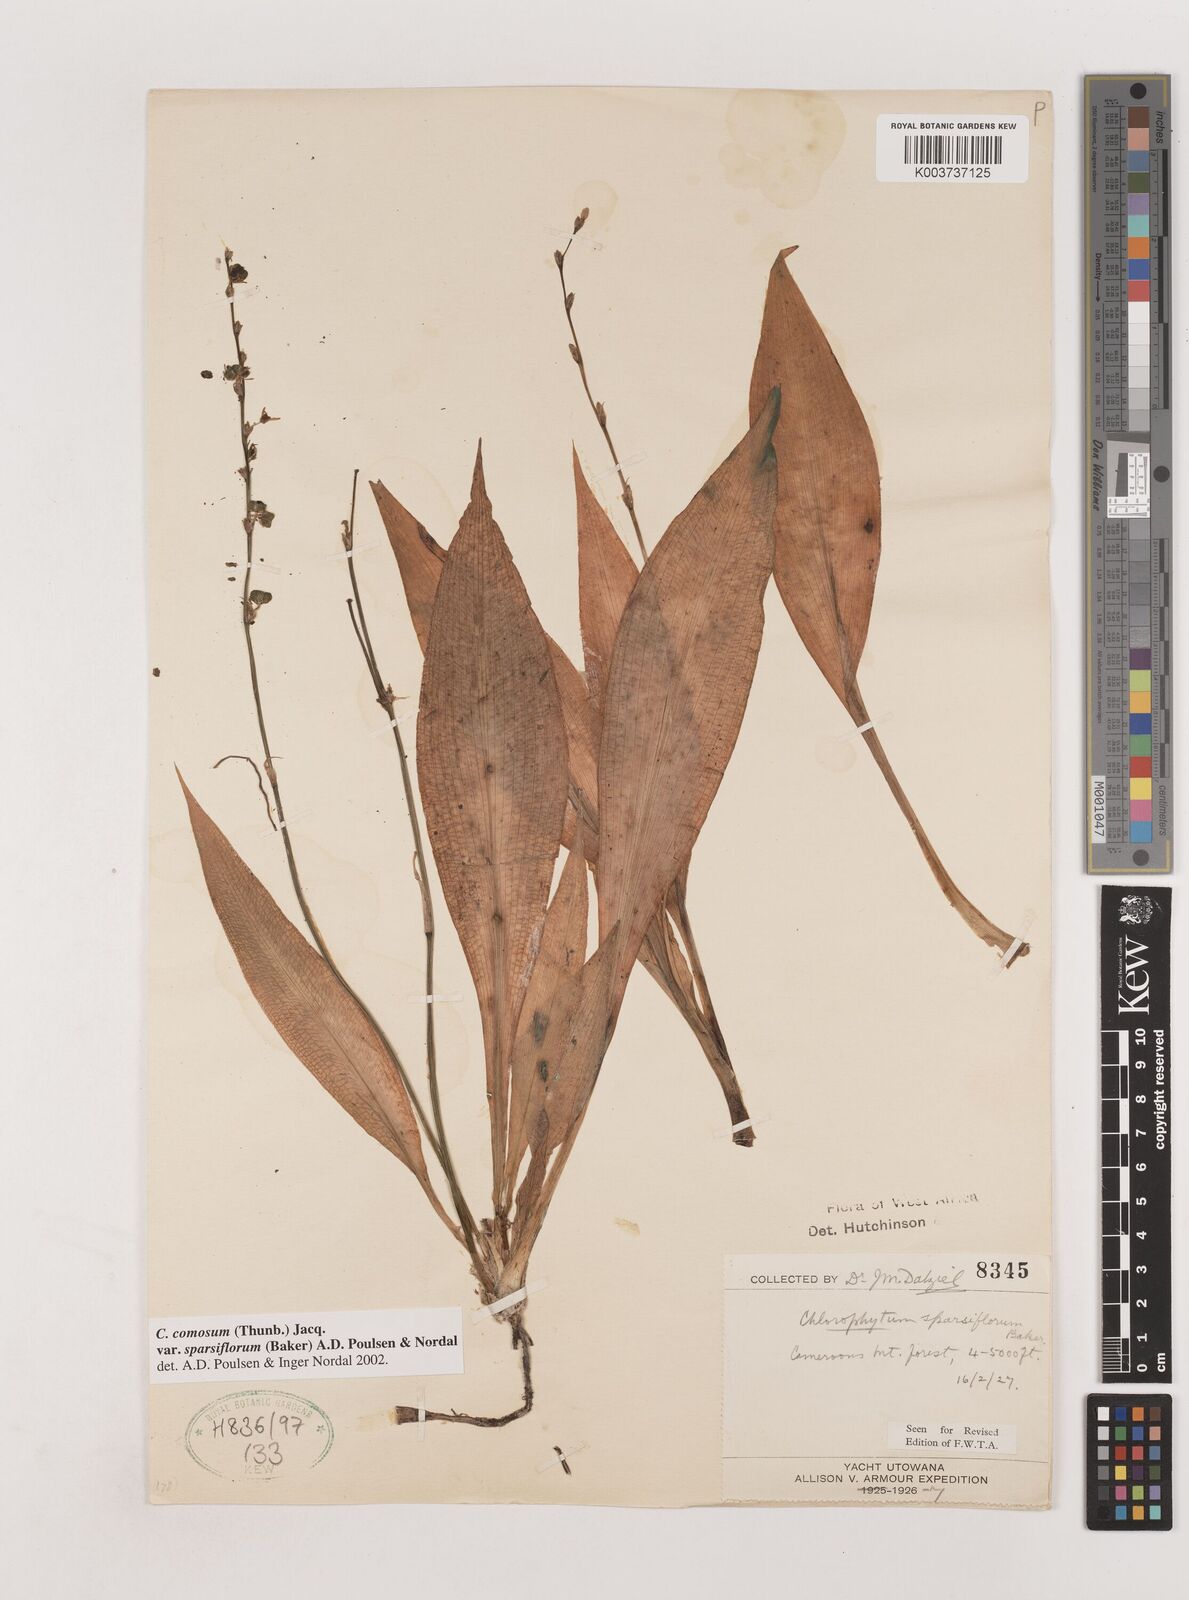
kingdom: Plantae
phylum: Tracheophyta
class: Liliopsida
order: Asparagales
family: Asparagaceae
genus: Chlorophytum
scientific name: Chlorophytum sparsiflorum
